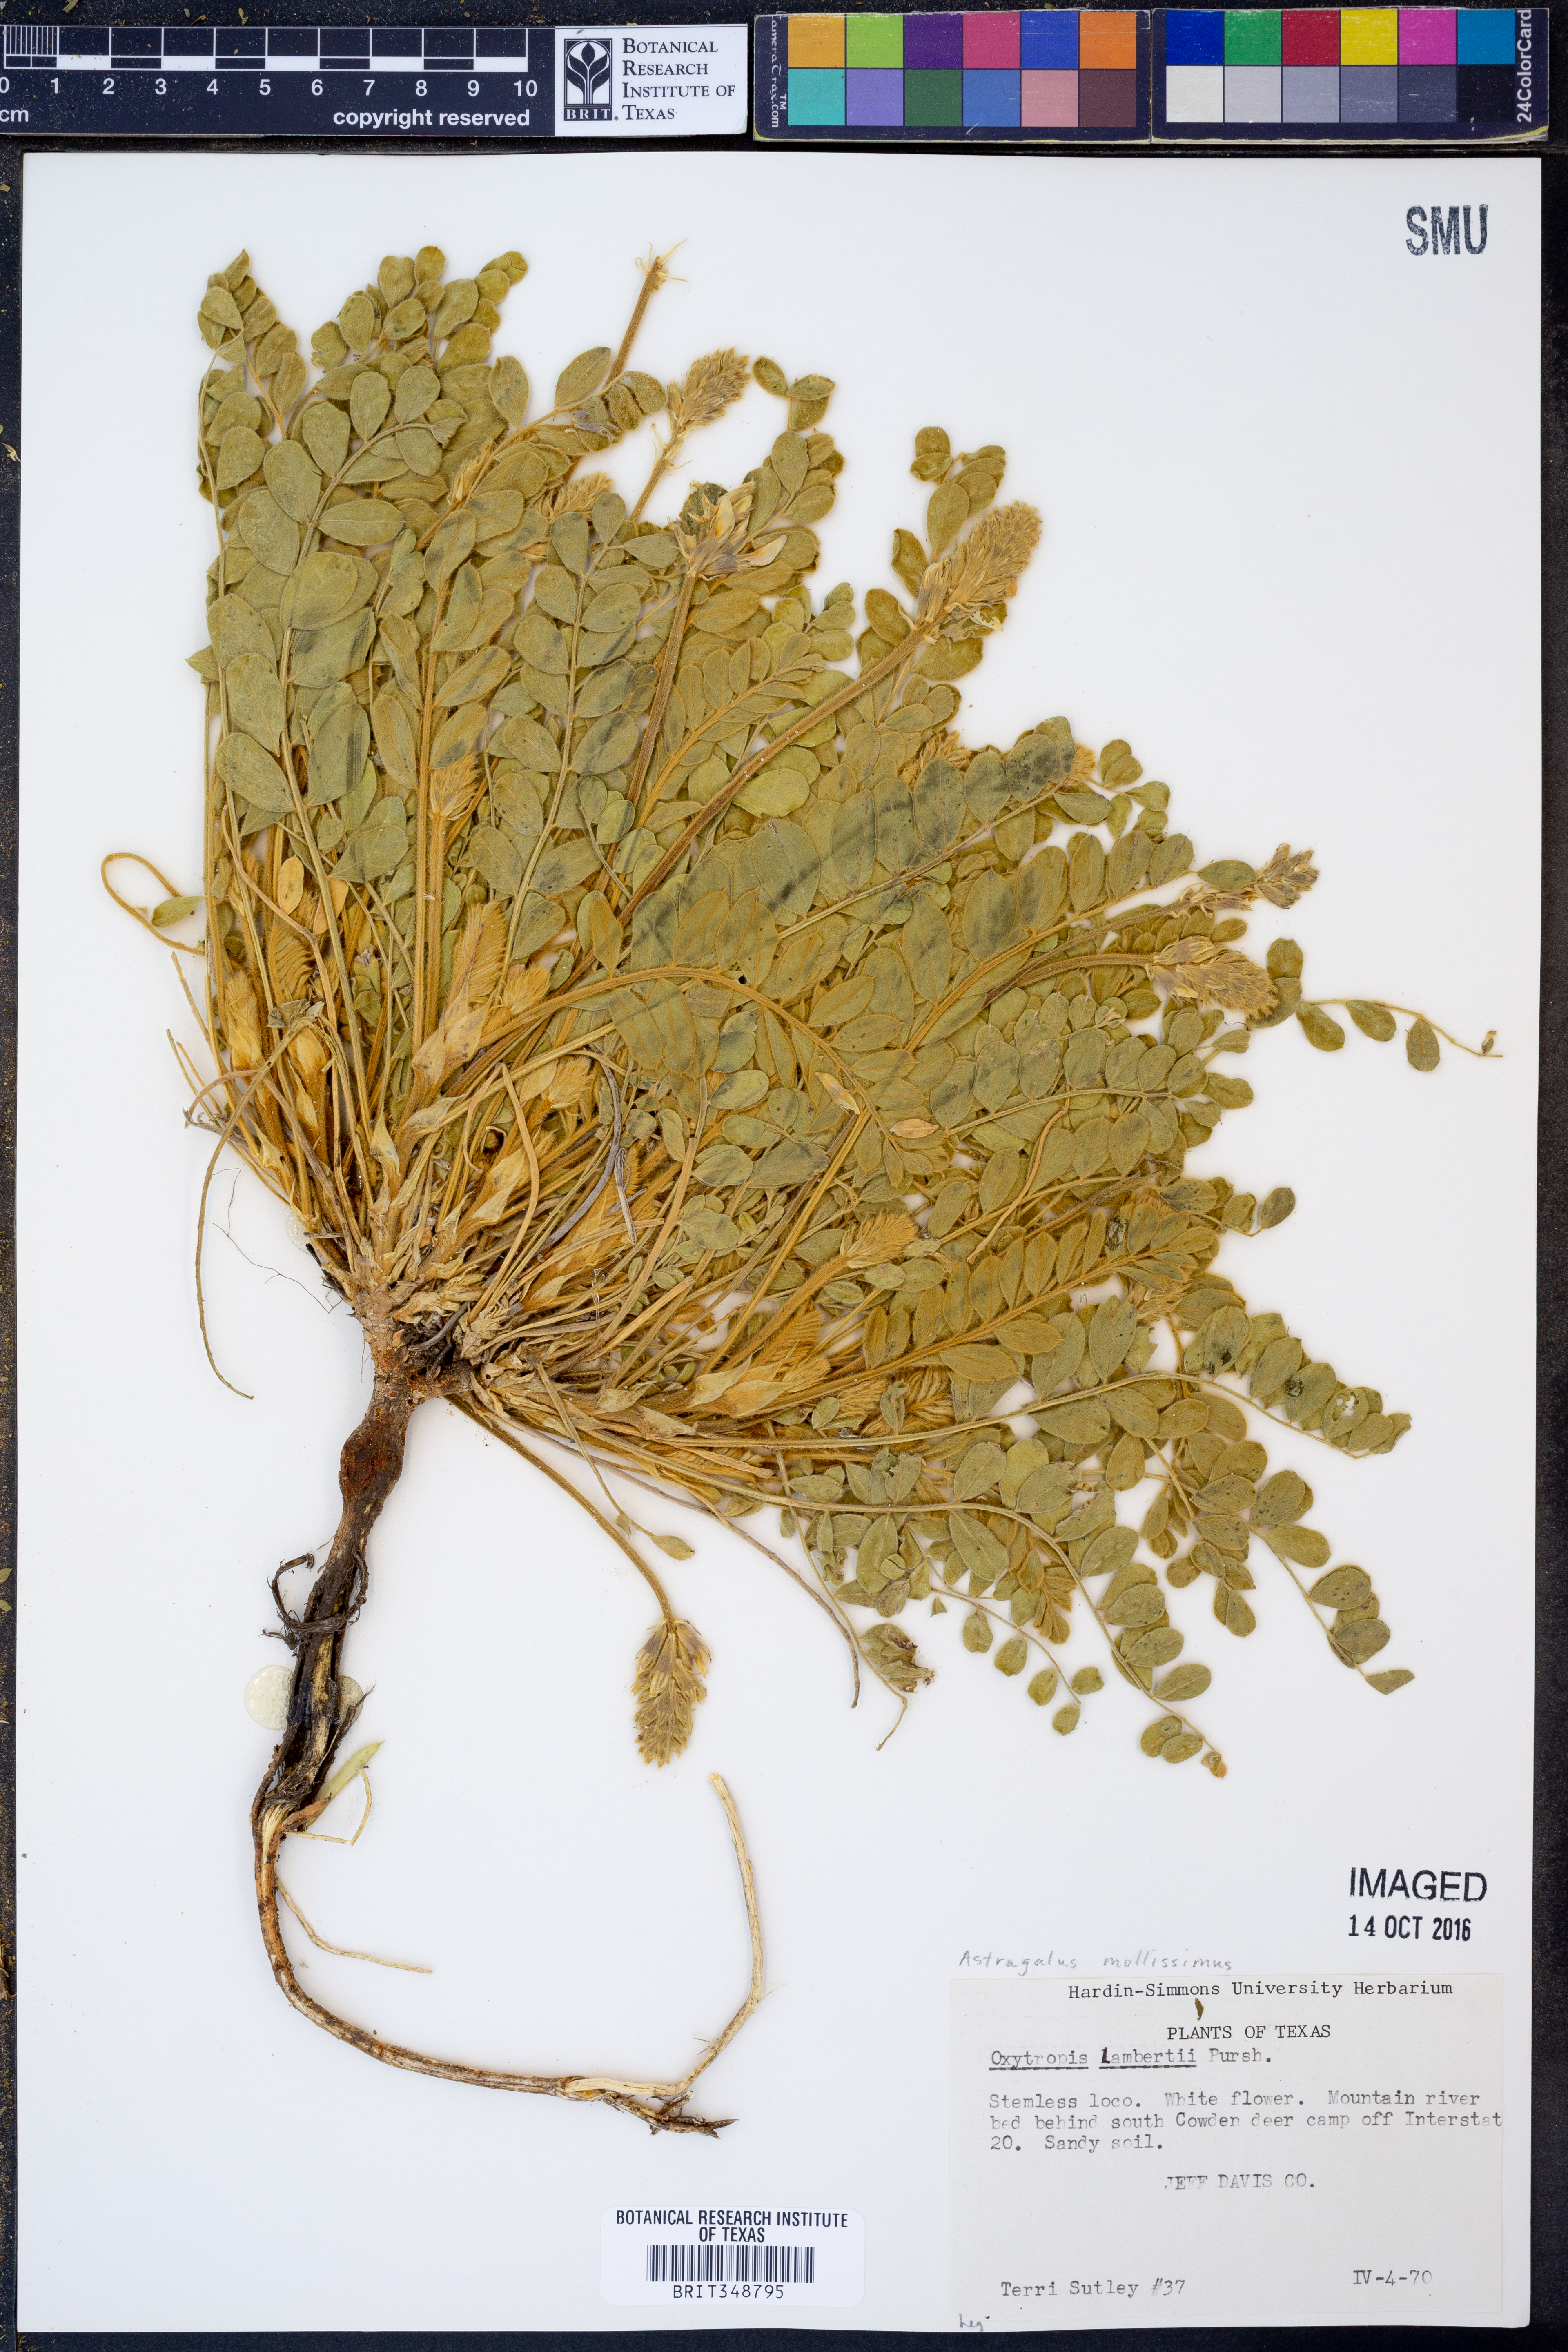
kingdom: Plantae
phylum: Tracheophyta
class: Magnoliopsida
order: Fabales
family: Fabaceae
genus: Astragalus
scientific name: Astragalus mollissimus
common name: Woolly locoweed
